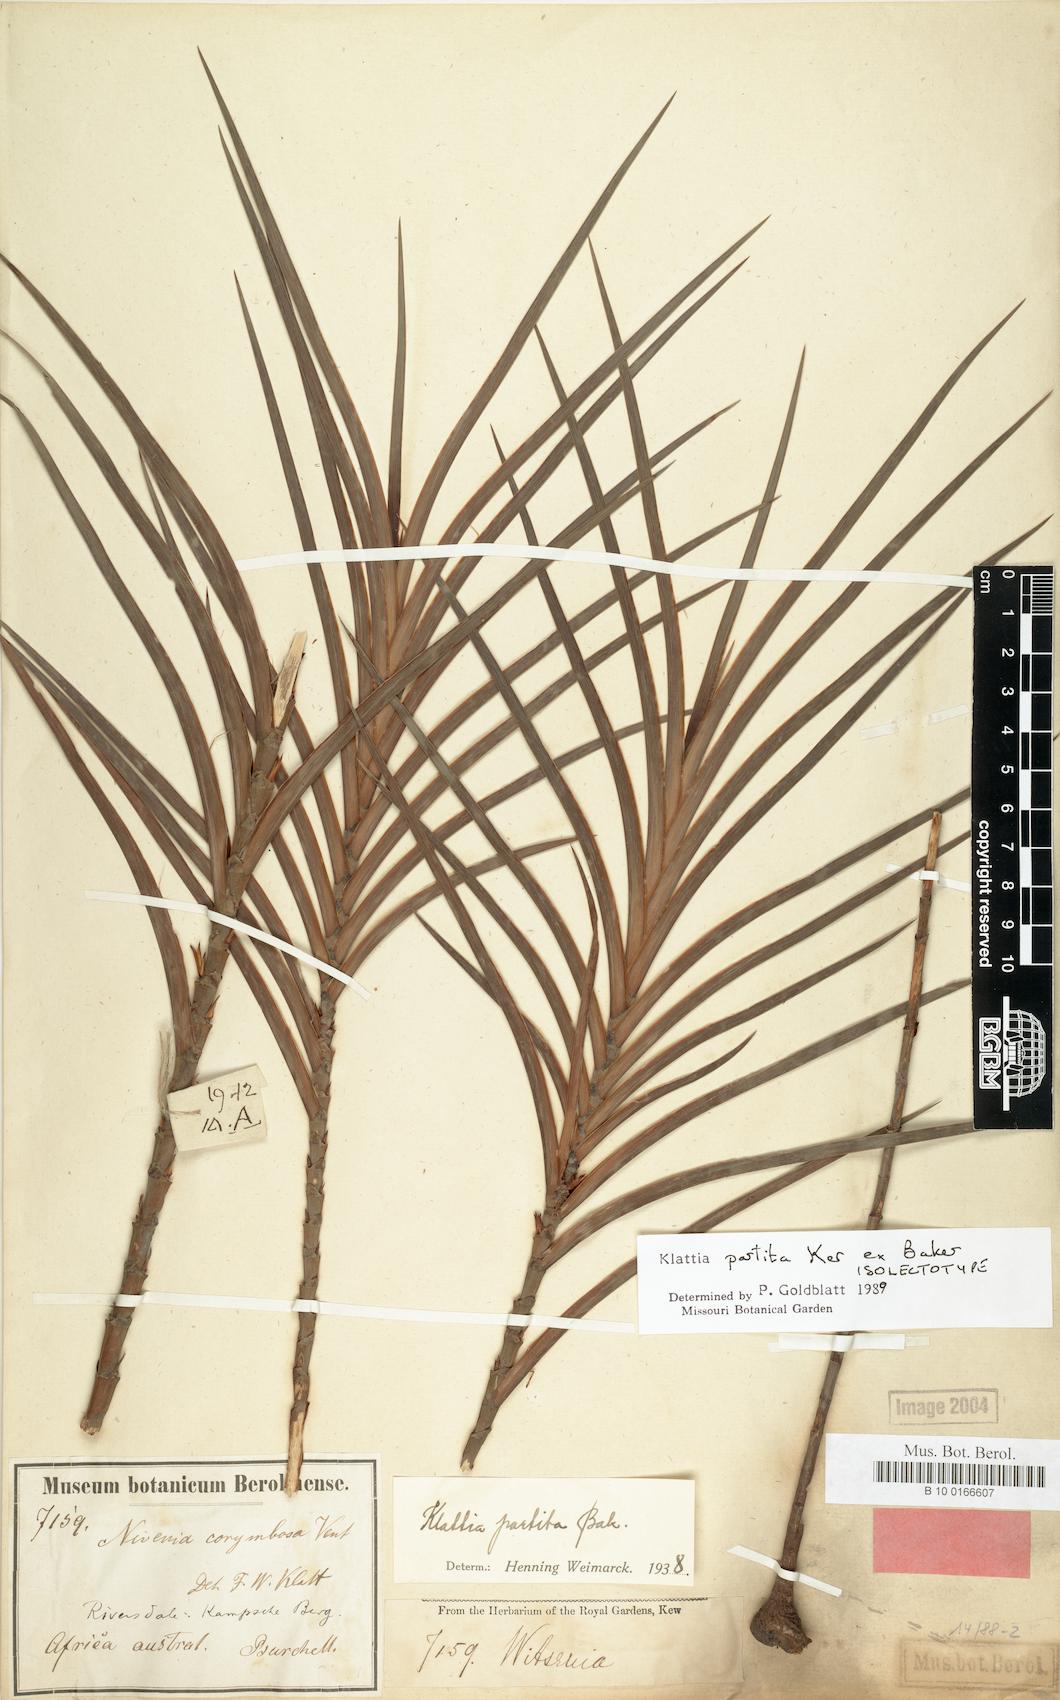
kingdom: Plantae
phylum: Tracheophyta
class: Liliopsida
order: Asparagales
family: Iridaceae
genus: Klattia
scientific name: Klattia partita
